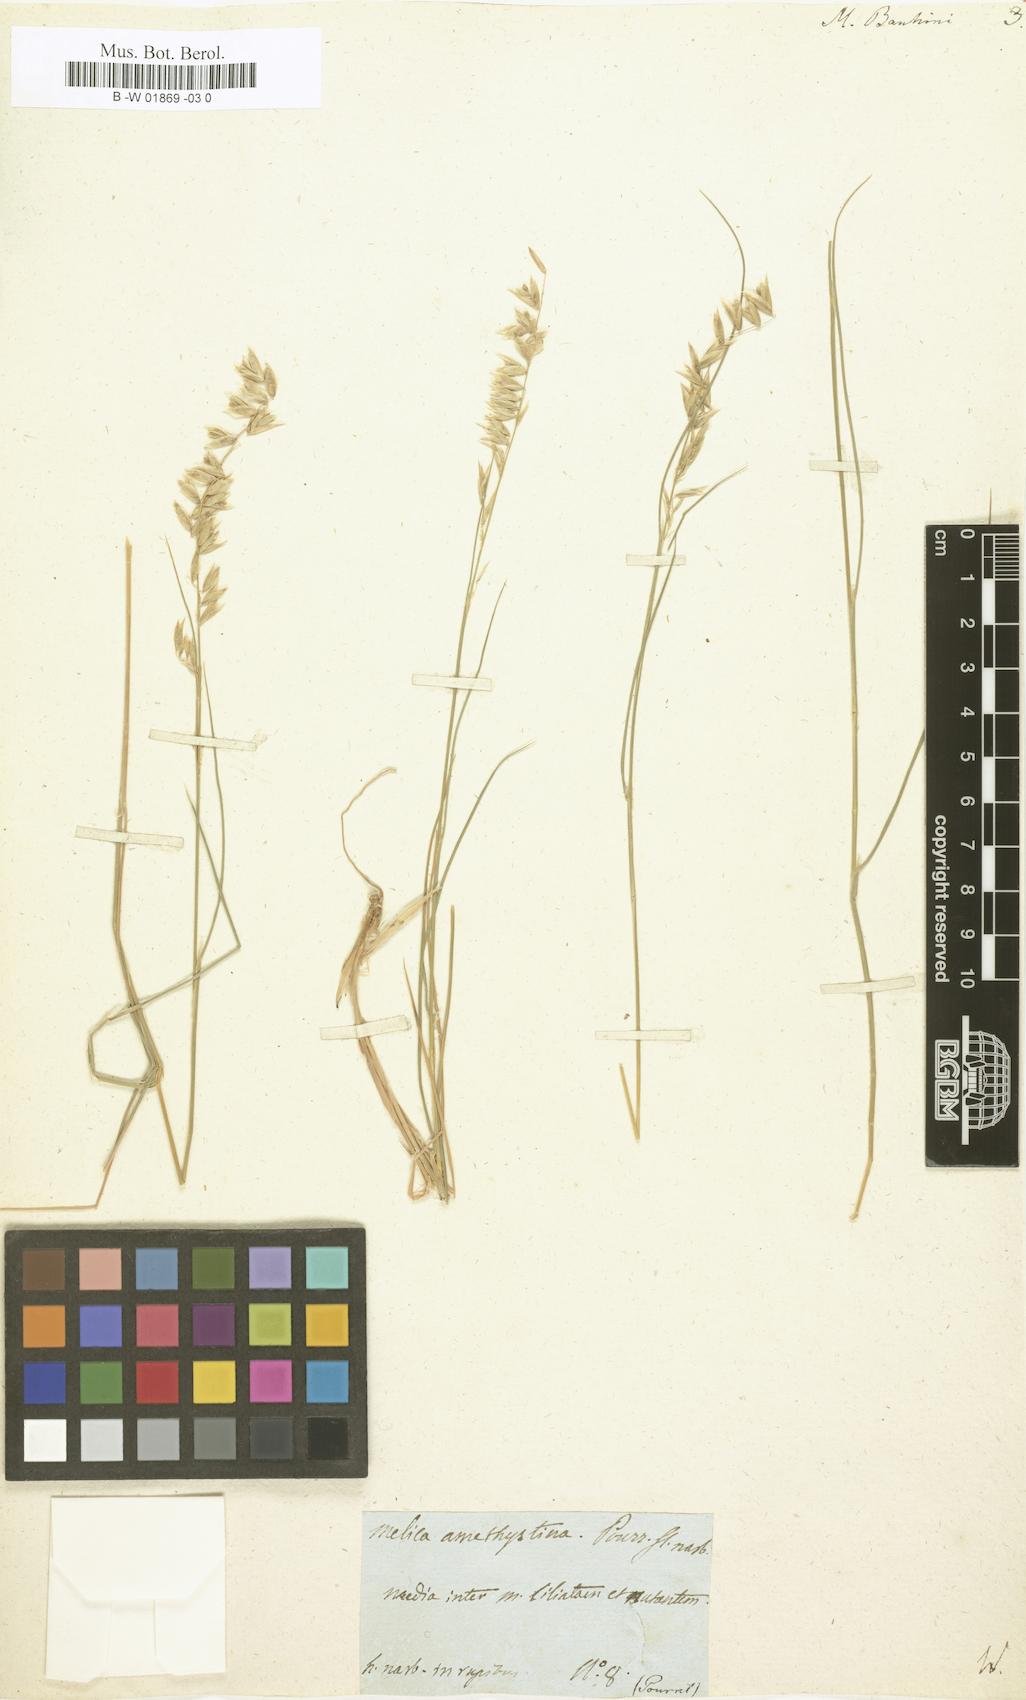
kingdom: Plantae
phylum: Tracheophyta
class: Liliopsida
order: Poales
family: Poaceae
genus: Melica
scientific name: Melica bauhini
